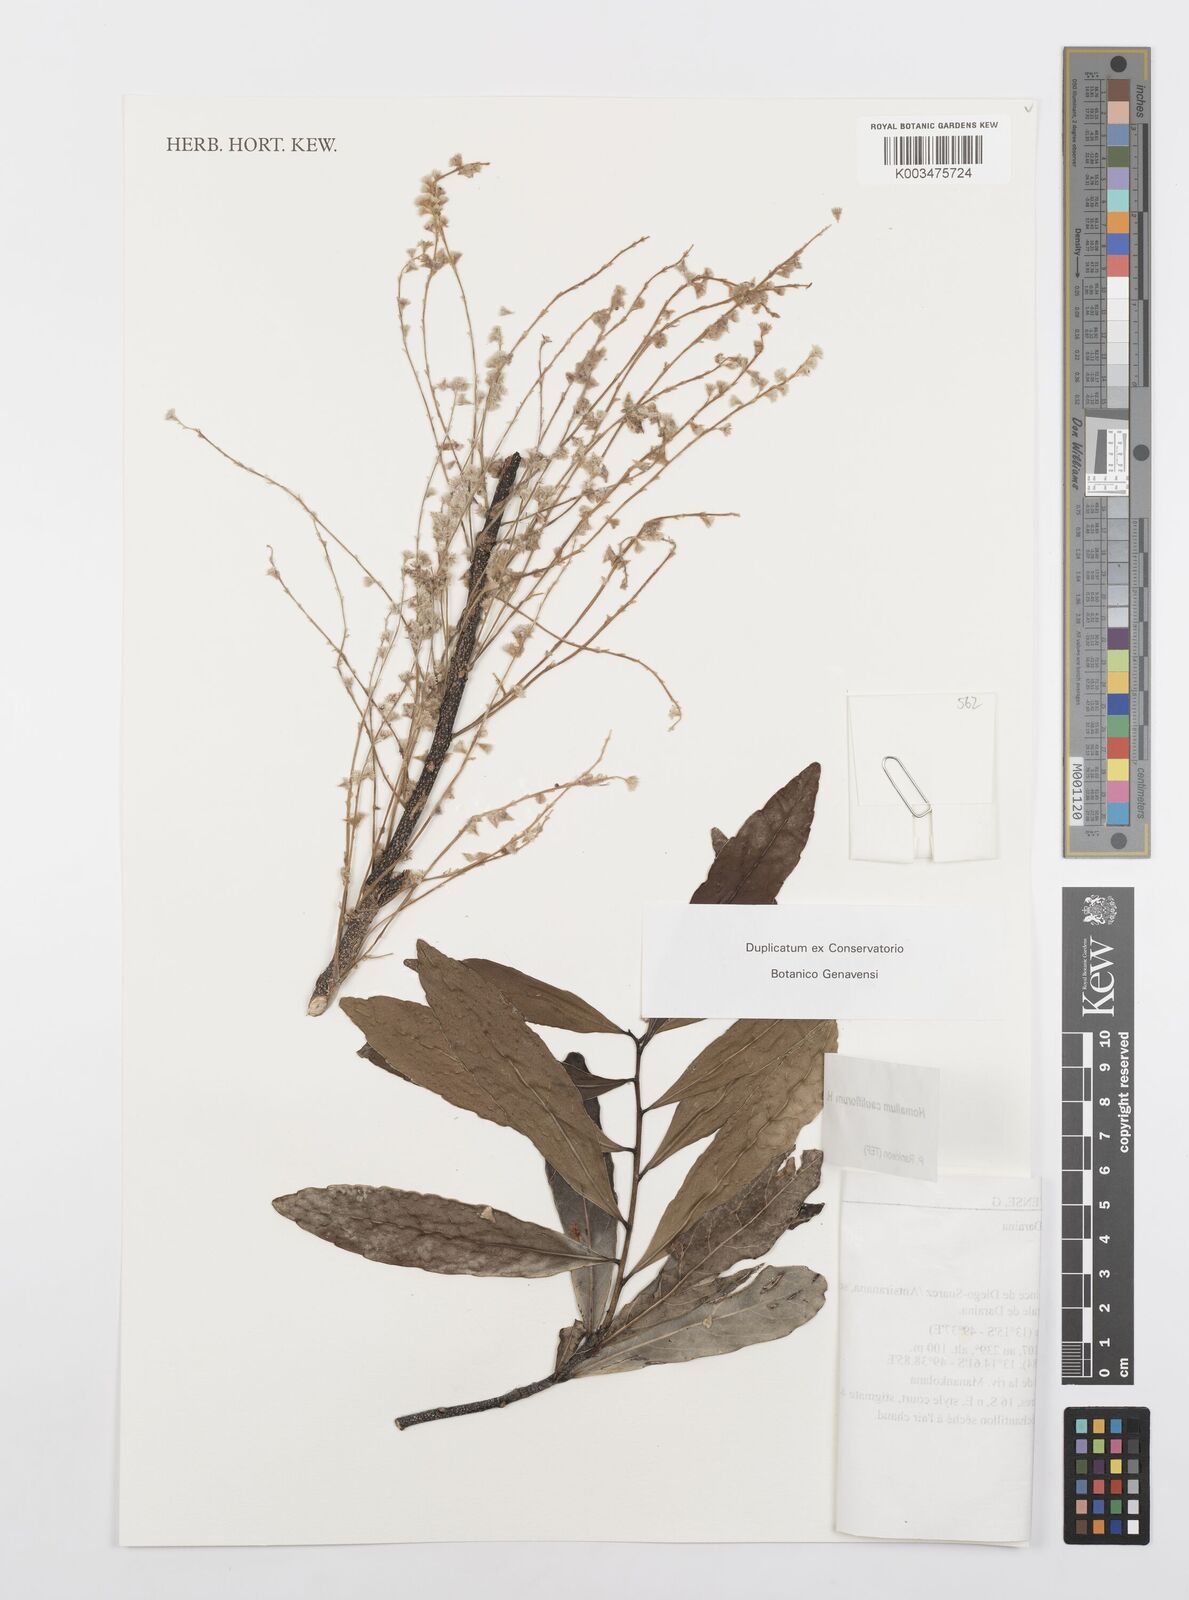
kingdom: Plantae
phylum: Tracheophyta
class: Magnoliopsida
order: Malpighiales
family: Salicaceae
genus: Homalium
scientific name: Homalium cauliflorum
